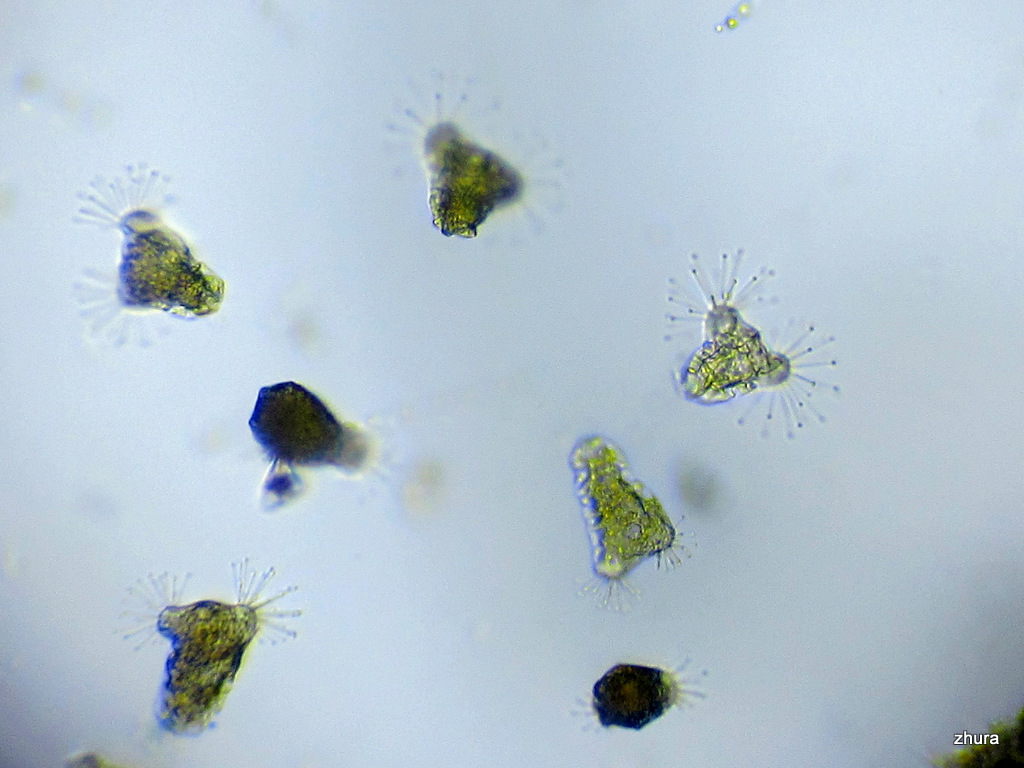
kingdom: Chromista
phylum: Ciliophora
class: Kinetofragminophora
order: Suctorida
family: Acinetidae
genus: Acineta
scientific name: Acineta tuberosa
